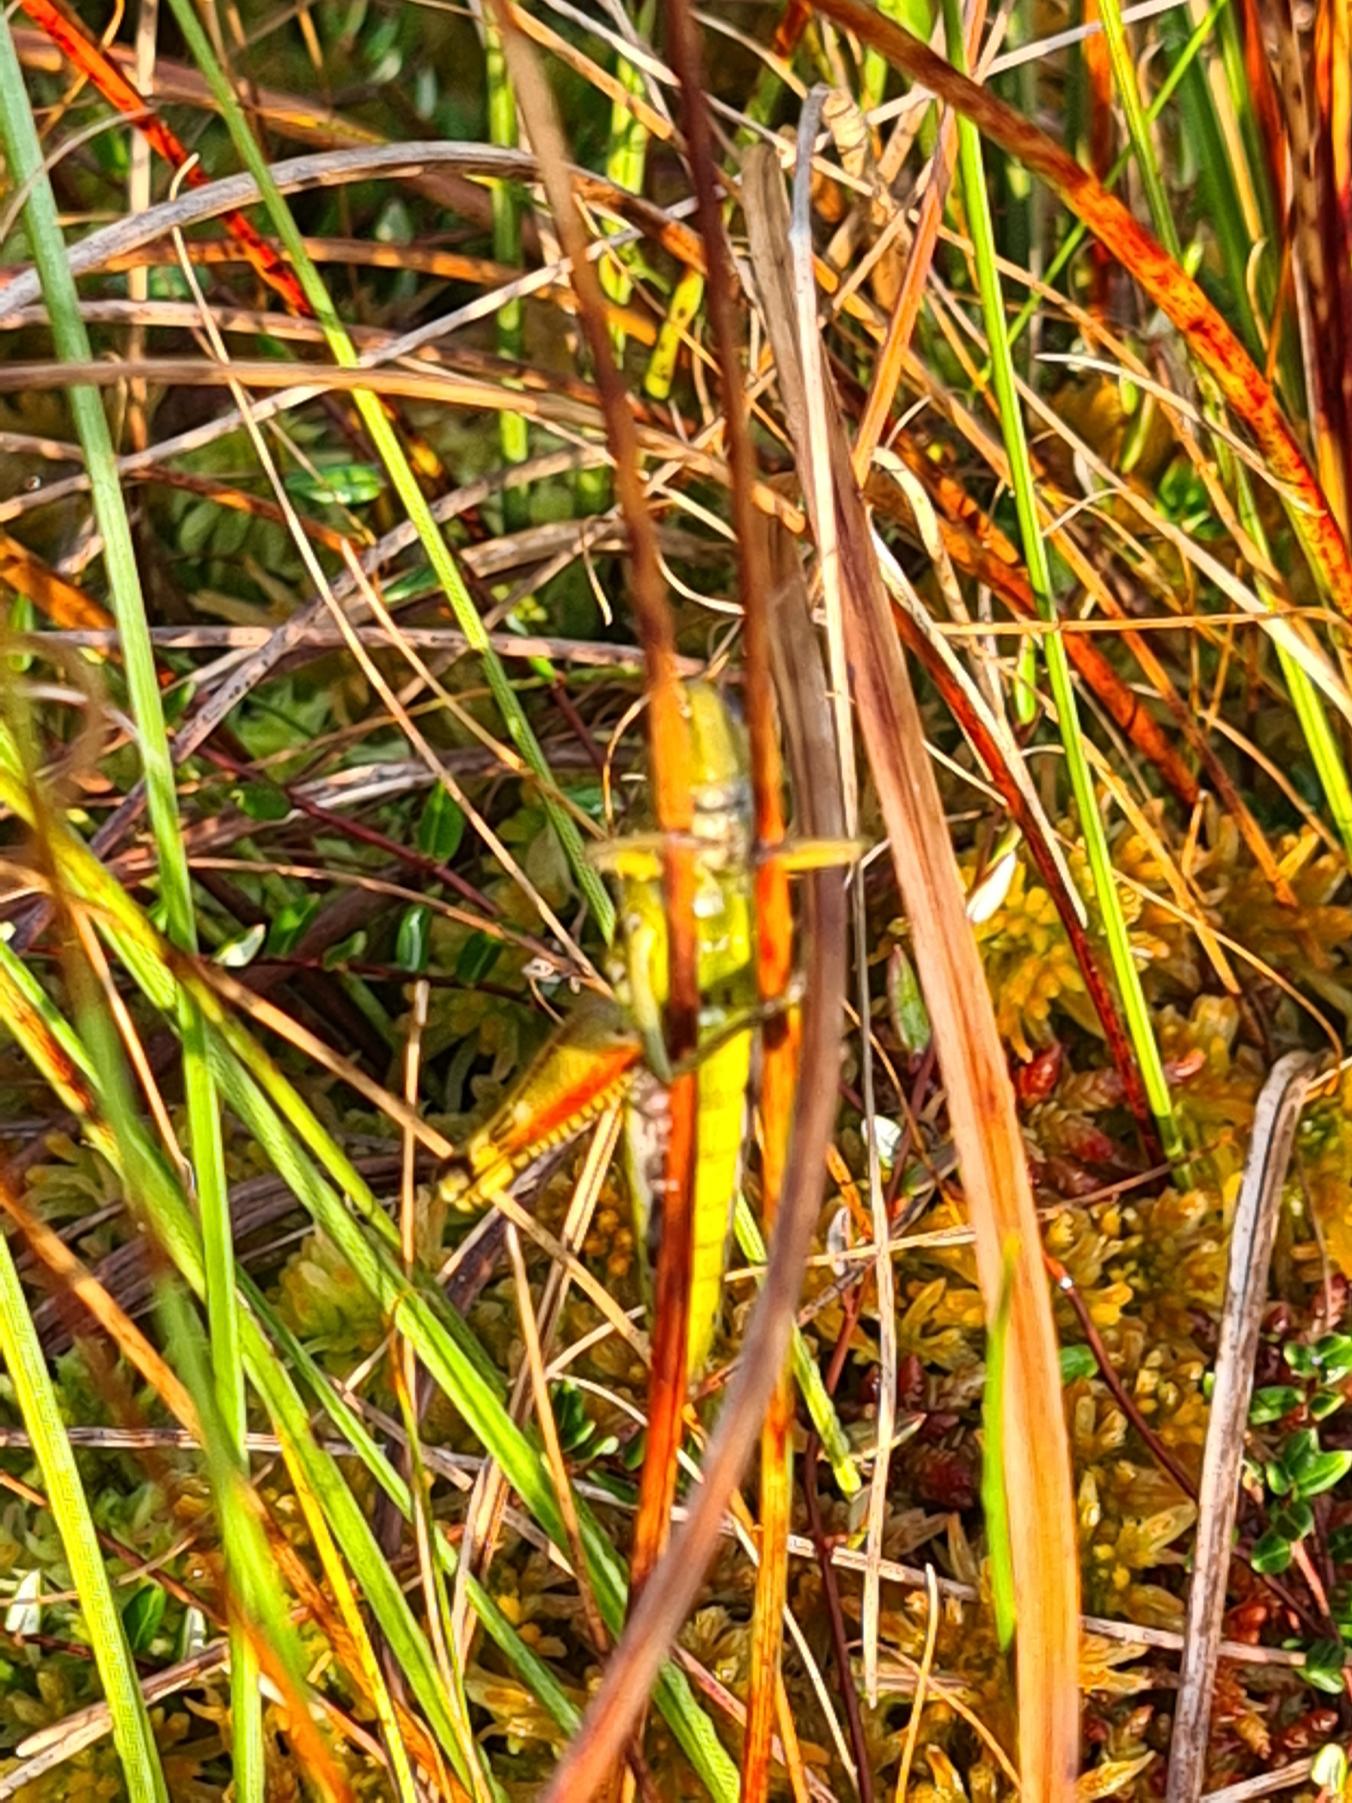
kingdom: Animalia
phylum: Arthropoda
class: Insecta
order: Orthoptera
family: Acrididae
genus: Stethophyma
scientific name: Stethophyma grossum
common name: Sumpgræshoppe
